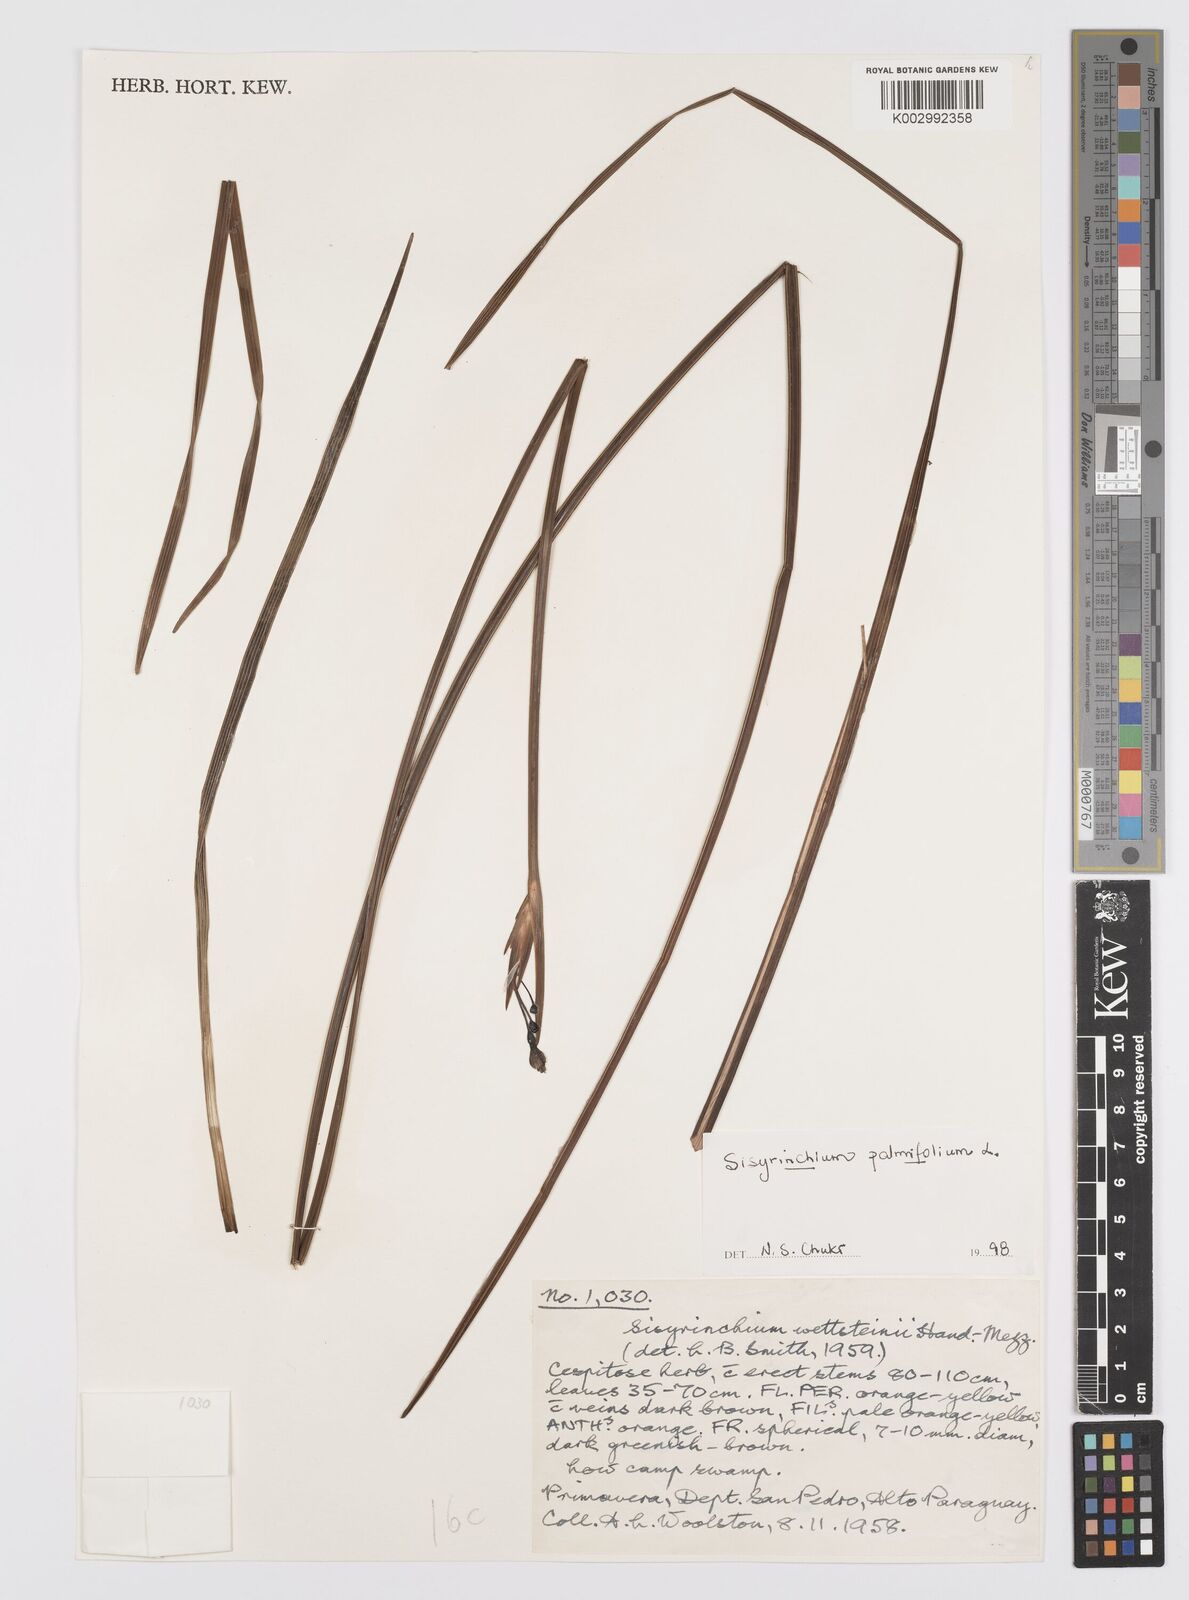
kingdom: Plantae
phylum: Tracheophyta
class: Liliopsida
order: Asparagales
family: Iridaceae
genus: Sisyrinchium
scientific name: Sisyrinchium palmifolium
